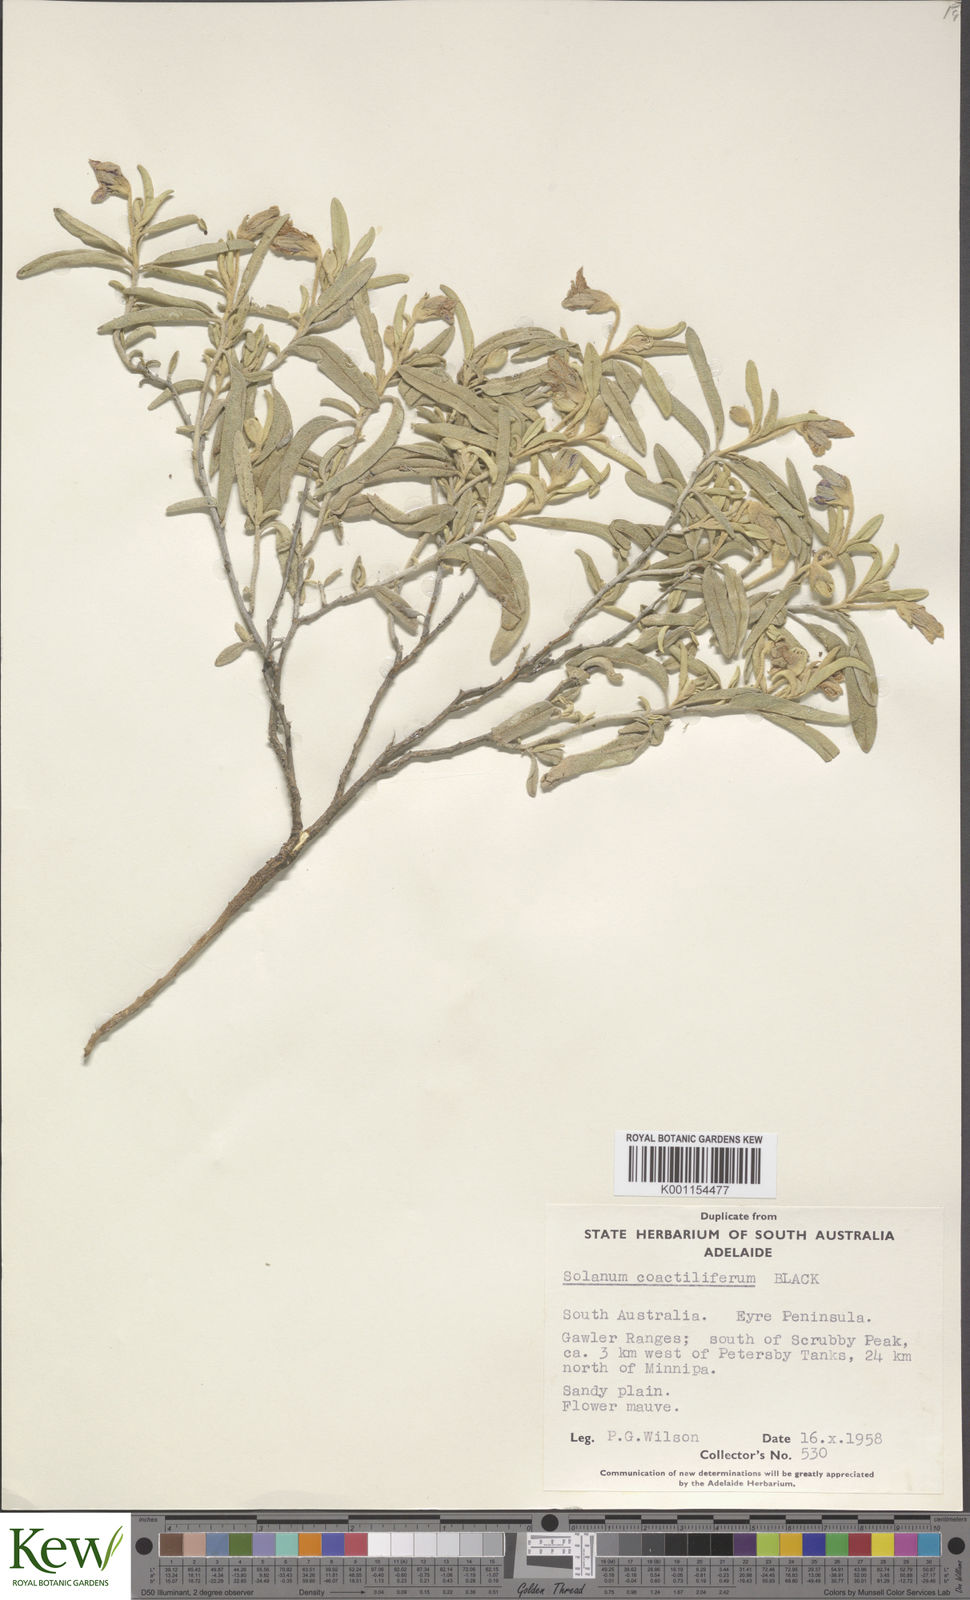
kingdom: Plantae
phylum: Tracheophyta
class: Magnoliopsida
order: Solanales
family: Solanaceae
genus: Solanum
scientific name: Solanum coactiliferum
